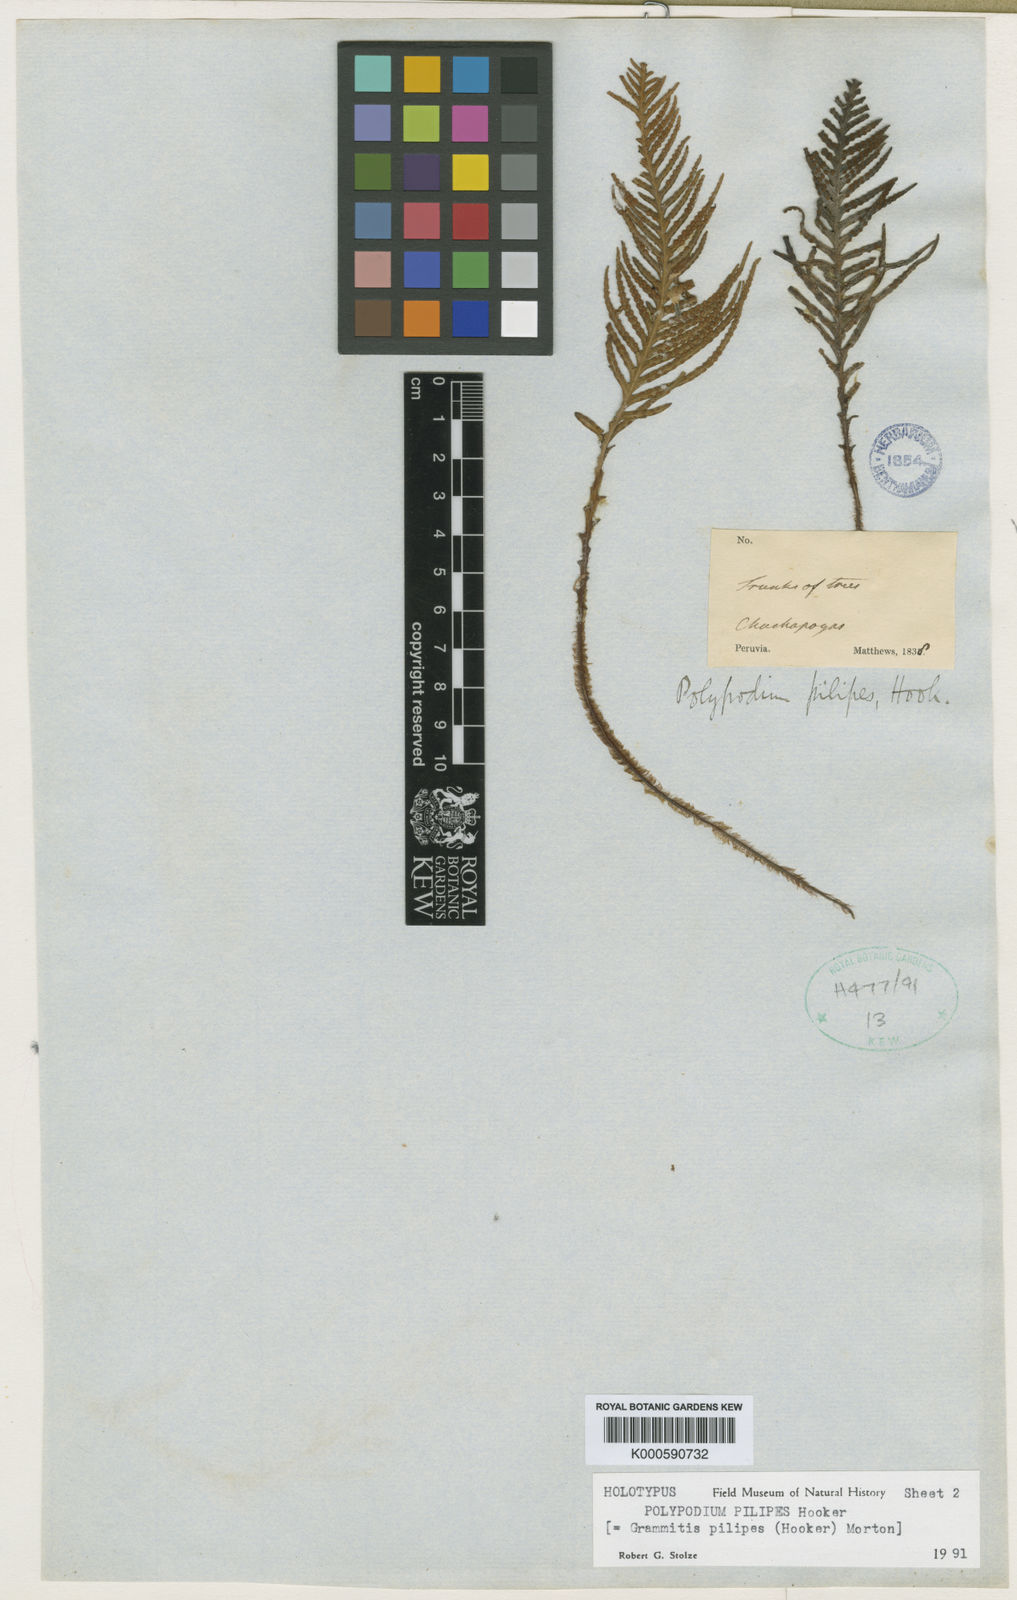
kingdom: Plantae
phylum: Tracheophyta
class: Polypodiopsida
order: Polypodiales
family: Polypodiaceae
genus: Ceradenia
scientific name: Ceradenia pilipes
